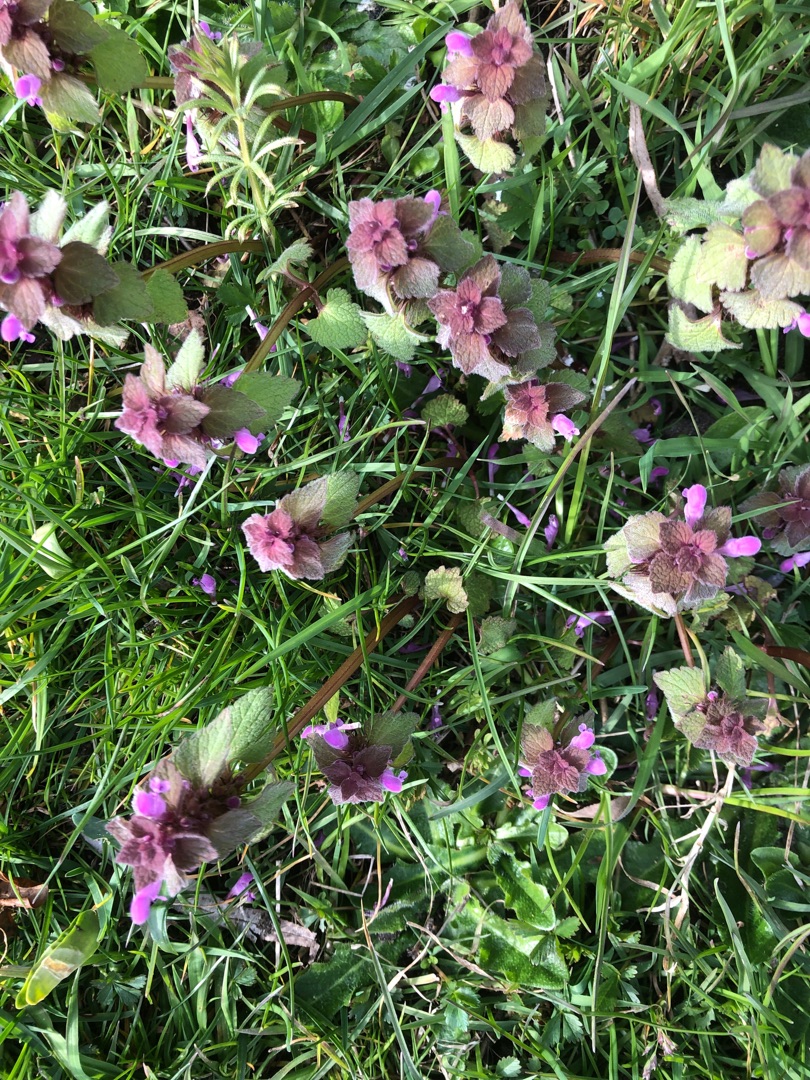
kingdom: Plantae
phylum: Tracheophyta
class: Magnoliopsida
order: Lamiales
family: Lamiaceae
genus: Lamium
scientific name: Lamium purpureum
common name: Rød tvetand
